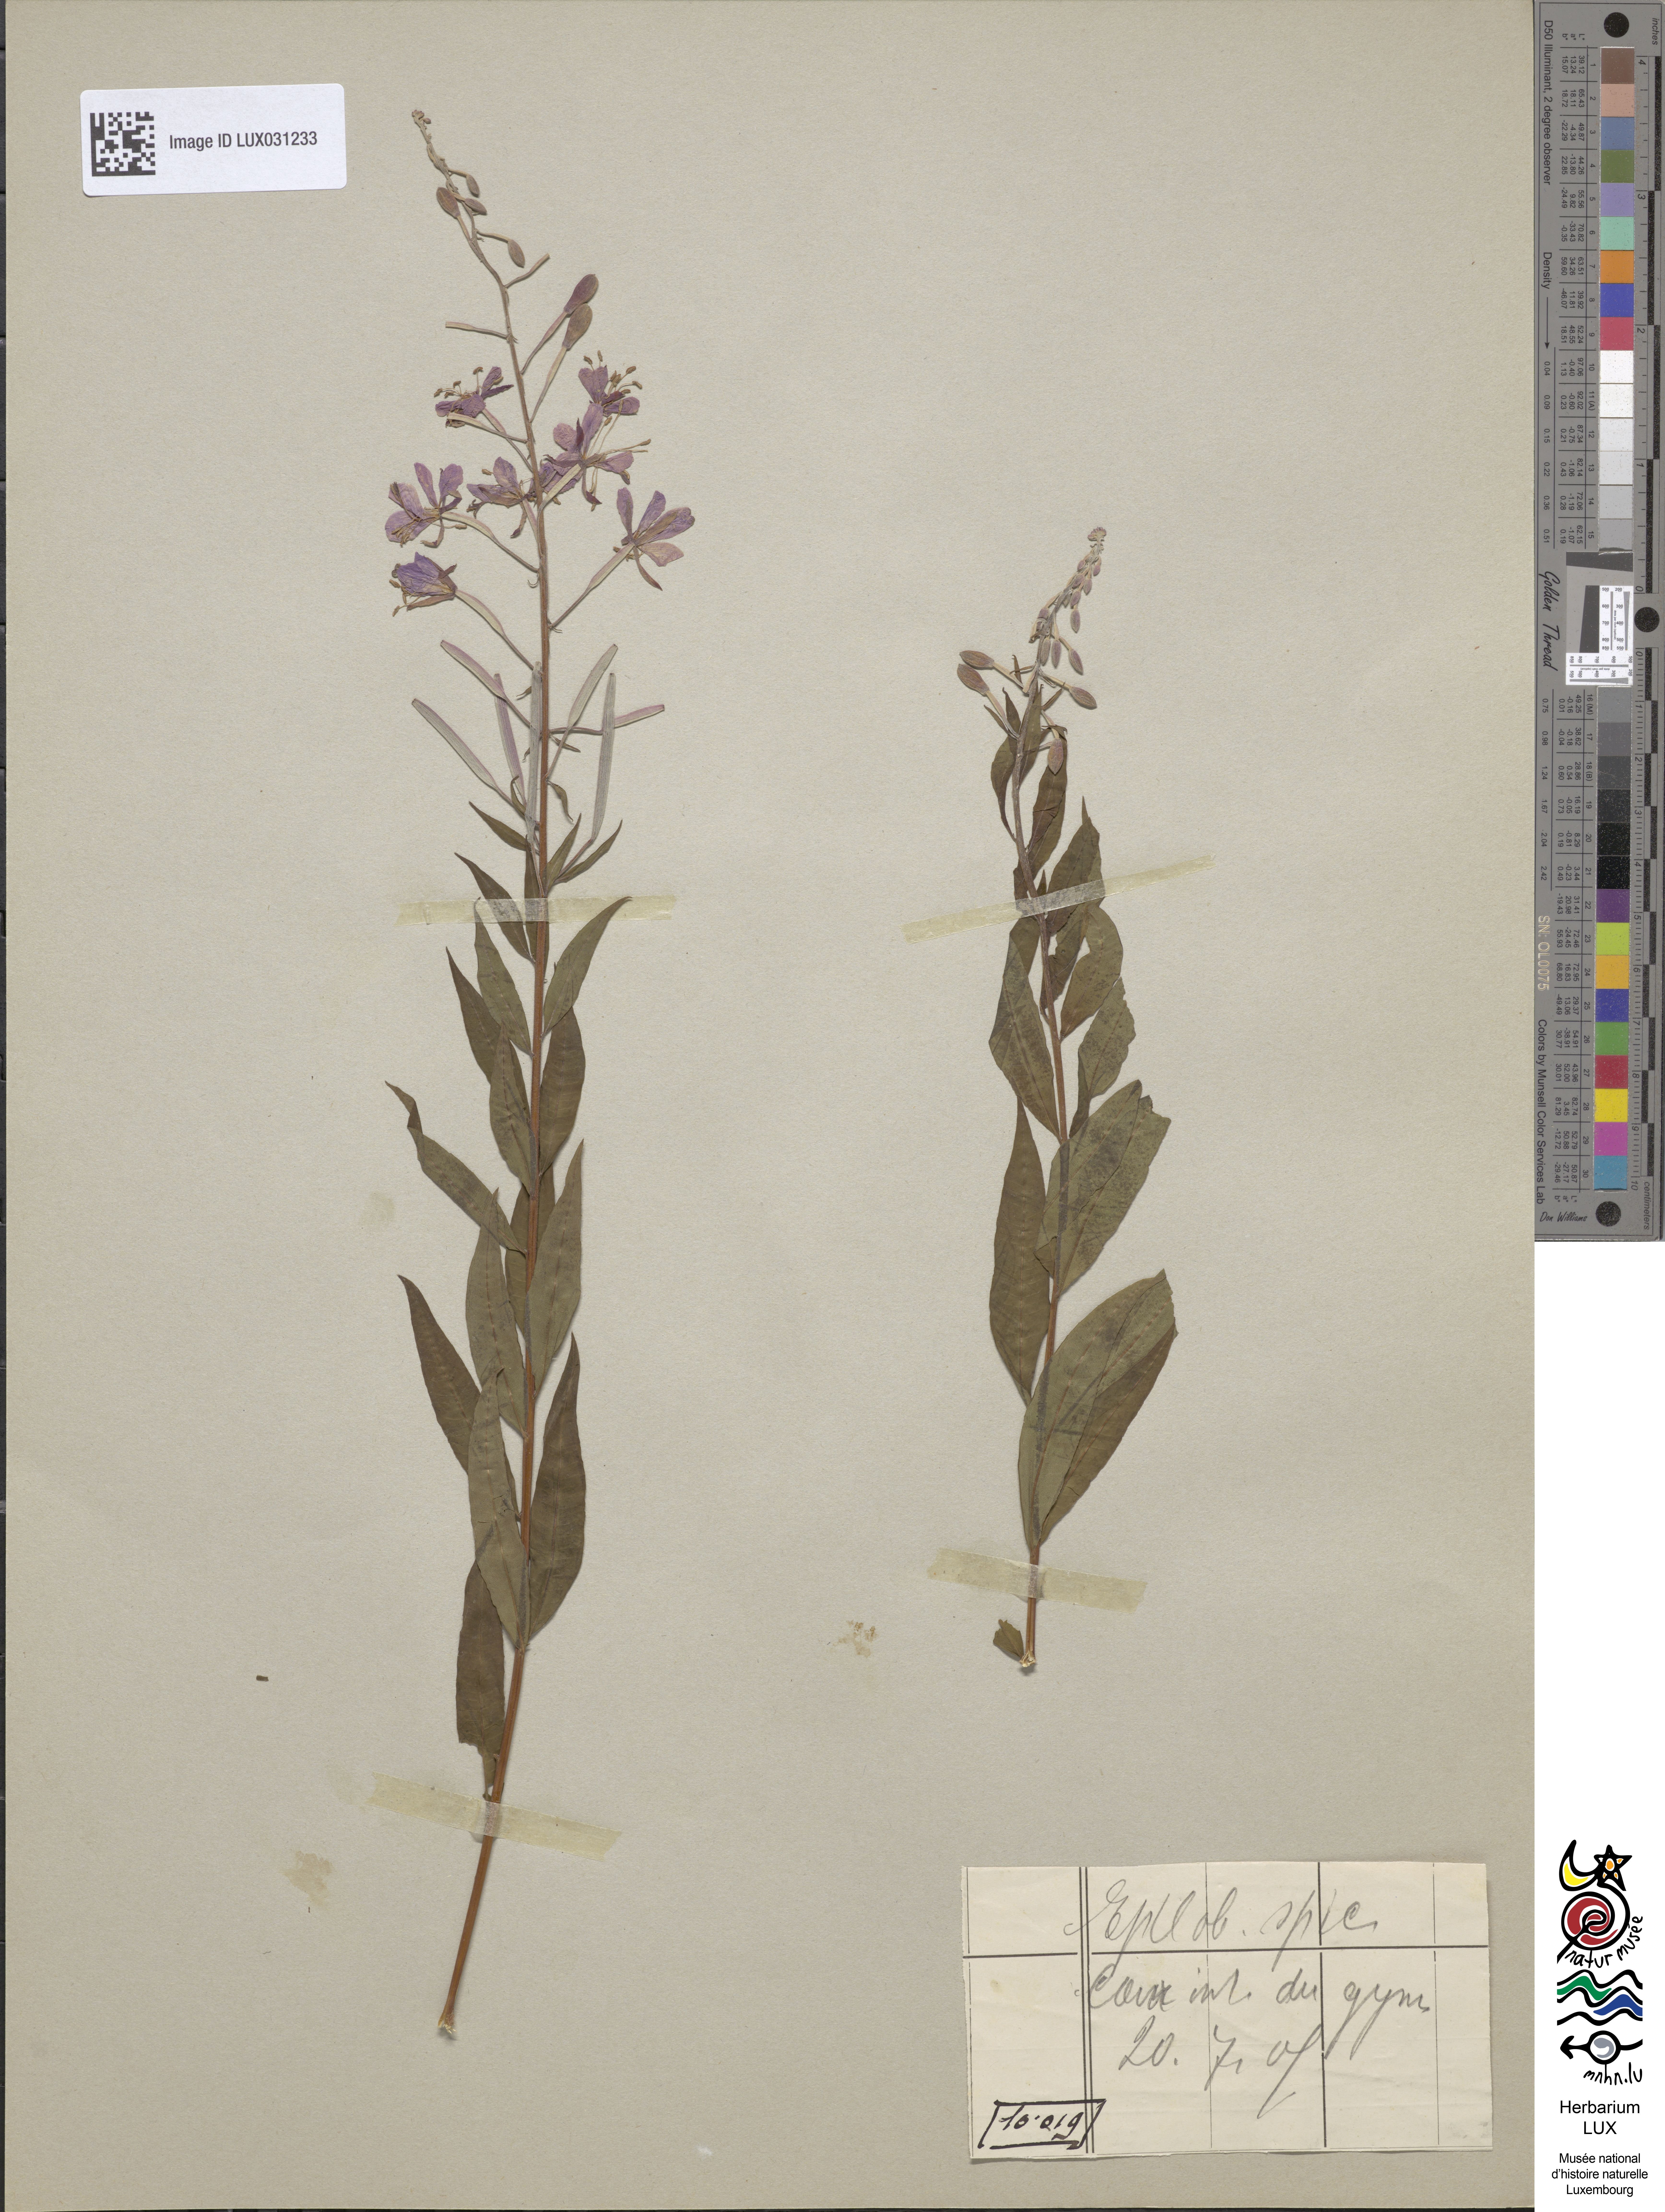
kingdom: Plantae
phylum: Tracheophyta
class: Magnoliopsida
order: Myrtales
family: Onagraceae
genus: Chamaenerion
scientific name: Chamaenerion angustifolium
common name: Fireweed
